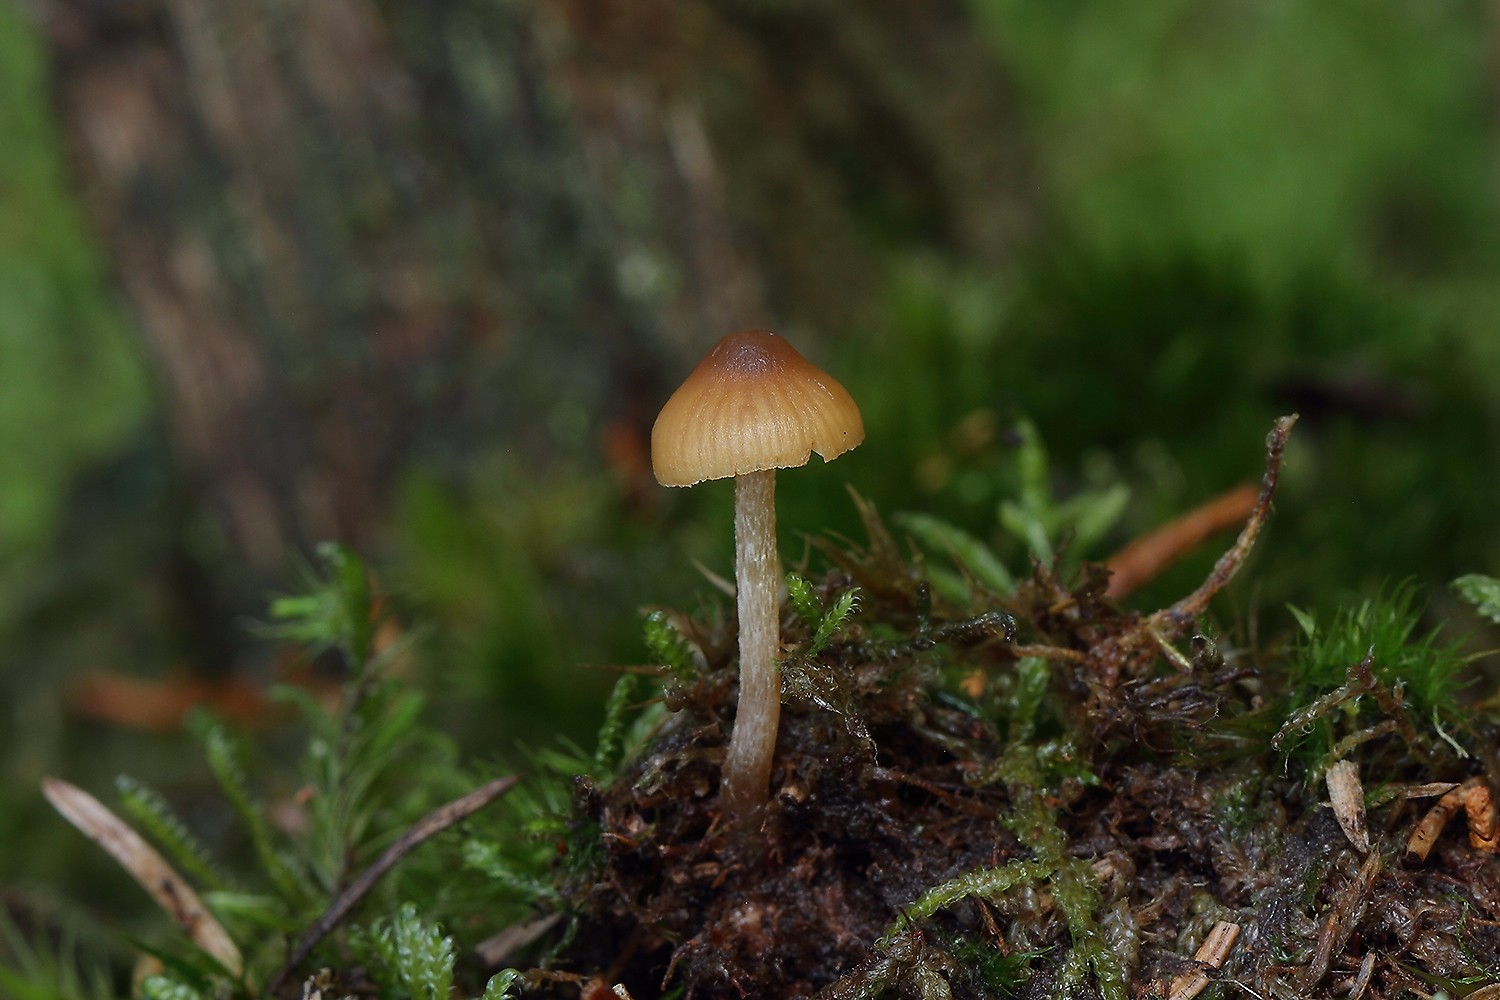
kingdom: Fungi
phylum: Basidiomycota
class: Agaricomycetes
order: Agaricales
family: Hymenogastraceae
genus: Galerina
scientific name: Galerina allospora
